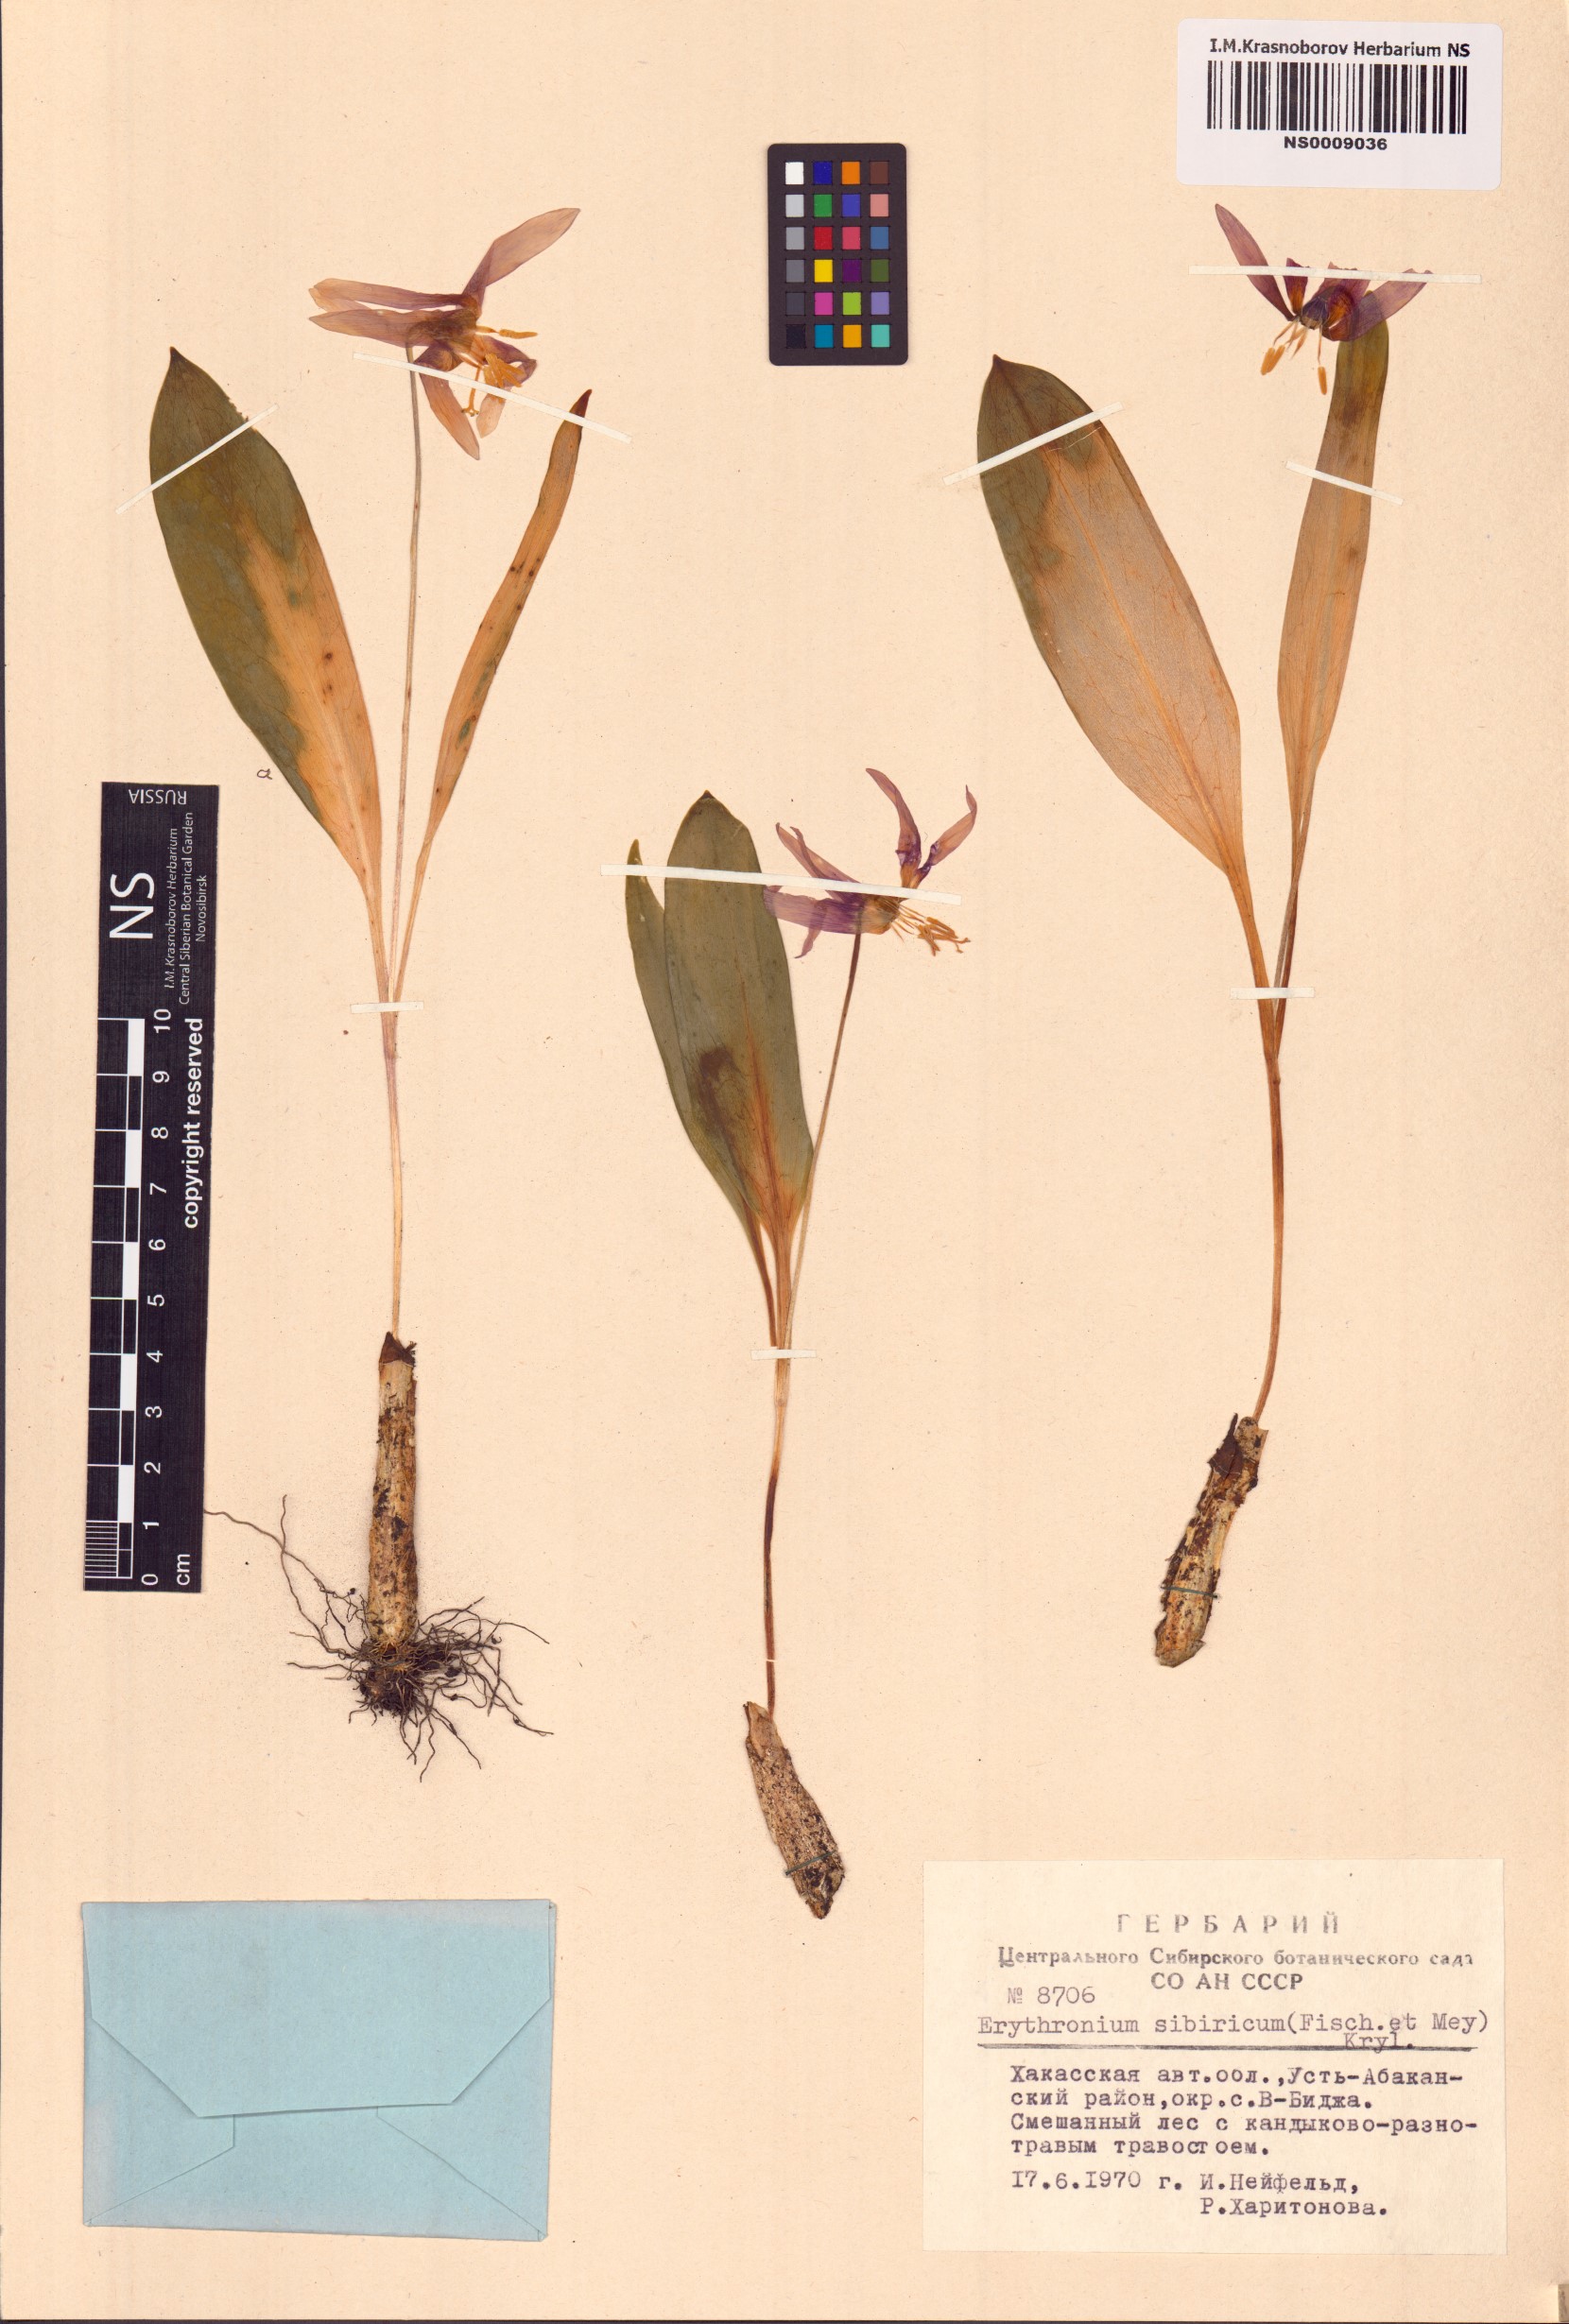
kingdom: Plantae
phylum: Tracheophyta
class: Liliopsida
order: Liliales
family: Liliaceae
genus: Erythronium
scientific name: Erythronium sibiricum
